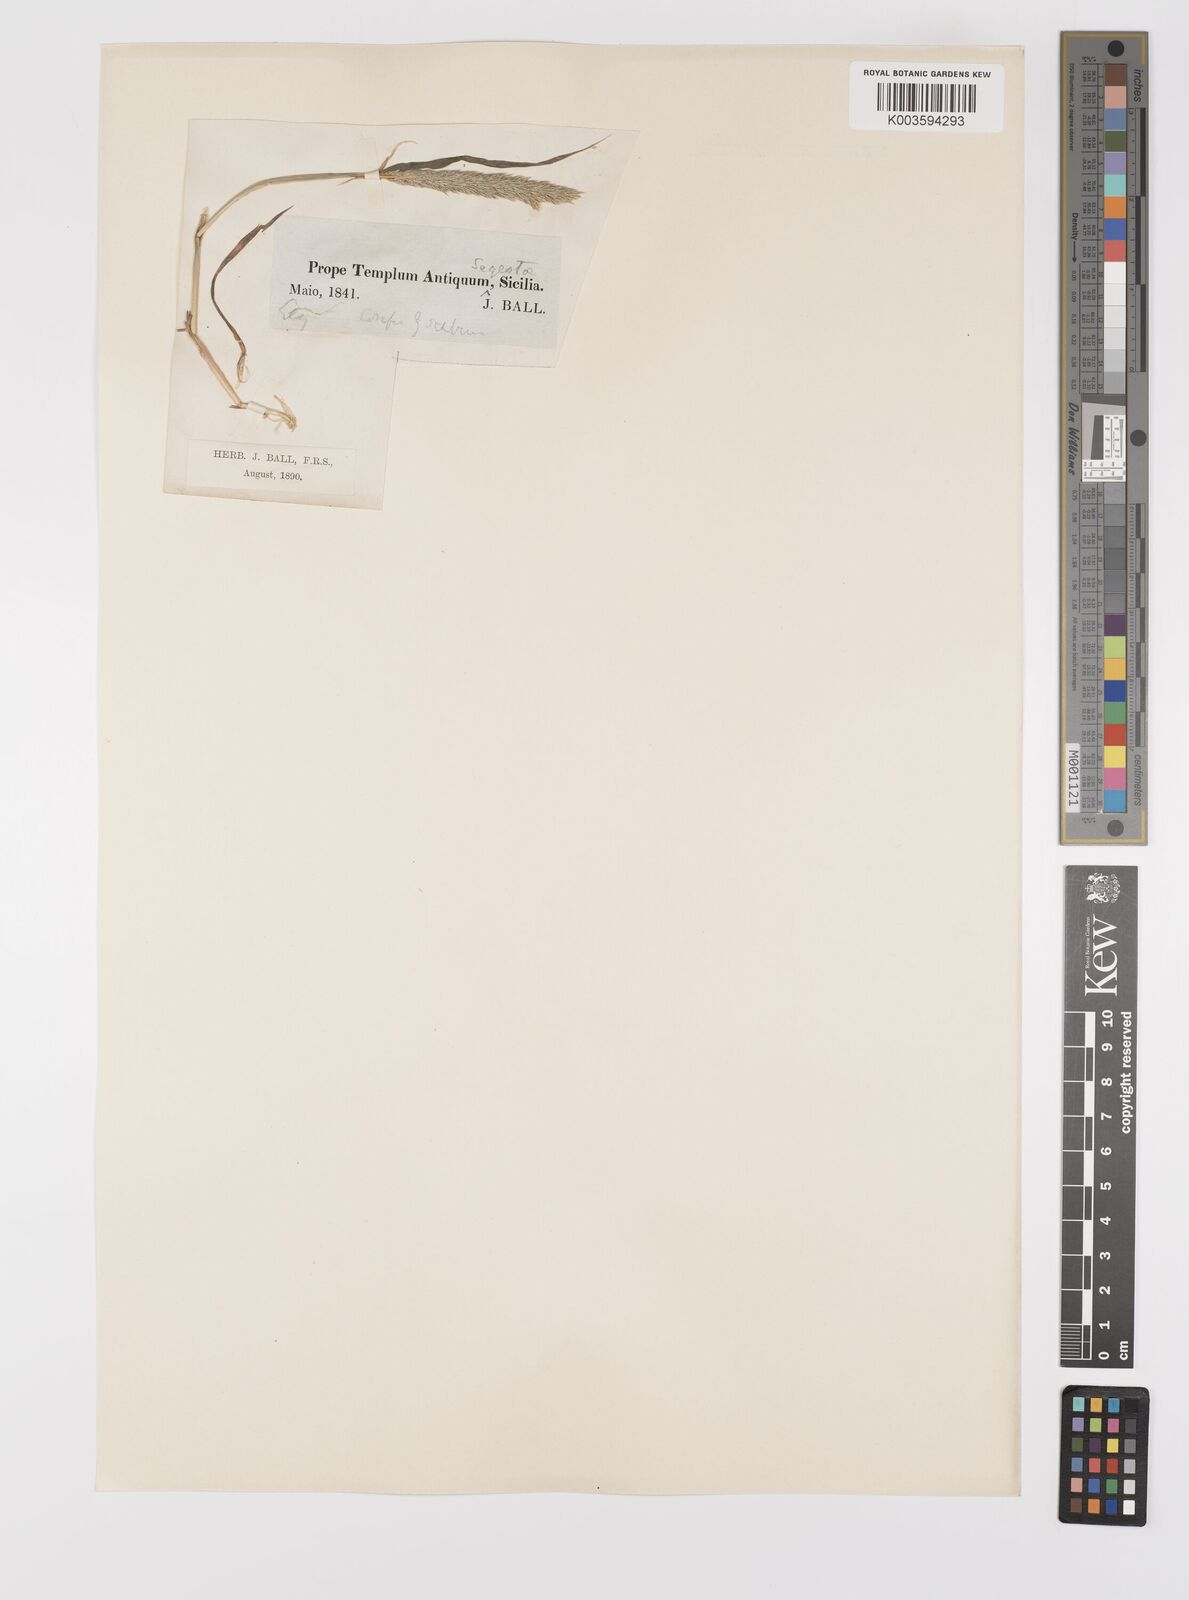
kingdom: Plantae
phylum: Tracheophyta
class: Liliopsida
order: Poales
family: Poaceae
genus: Gastridium
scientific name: Gastridium ventricosum
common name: Nit-grass
